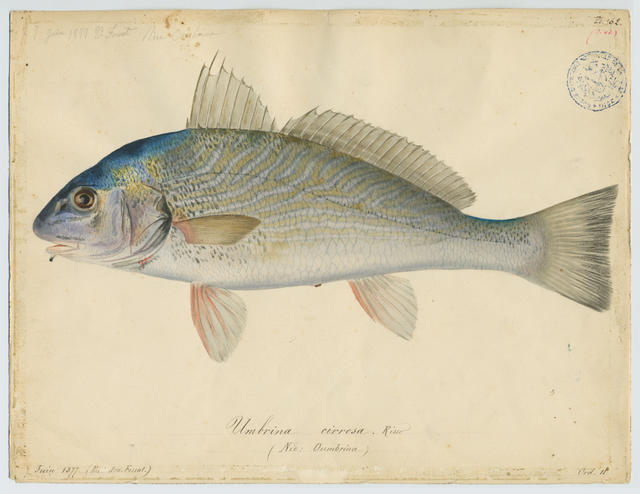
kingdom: Animalia
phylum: Chordata
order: Perciformes
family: Sciaenidae
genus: Umbrina
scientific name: Umbrina cirrosa
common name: Shi drum
